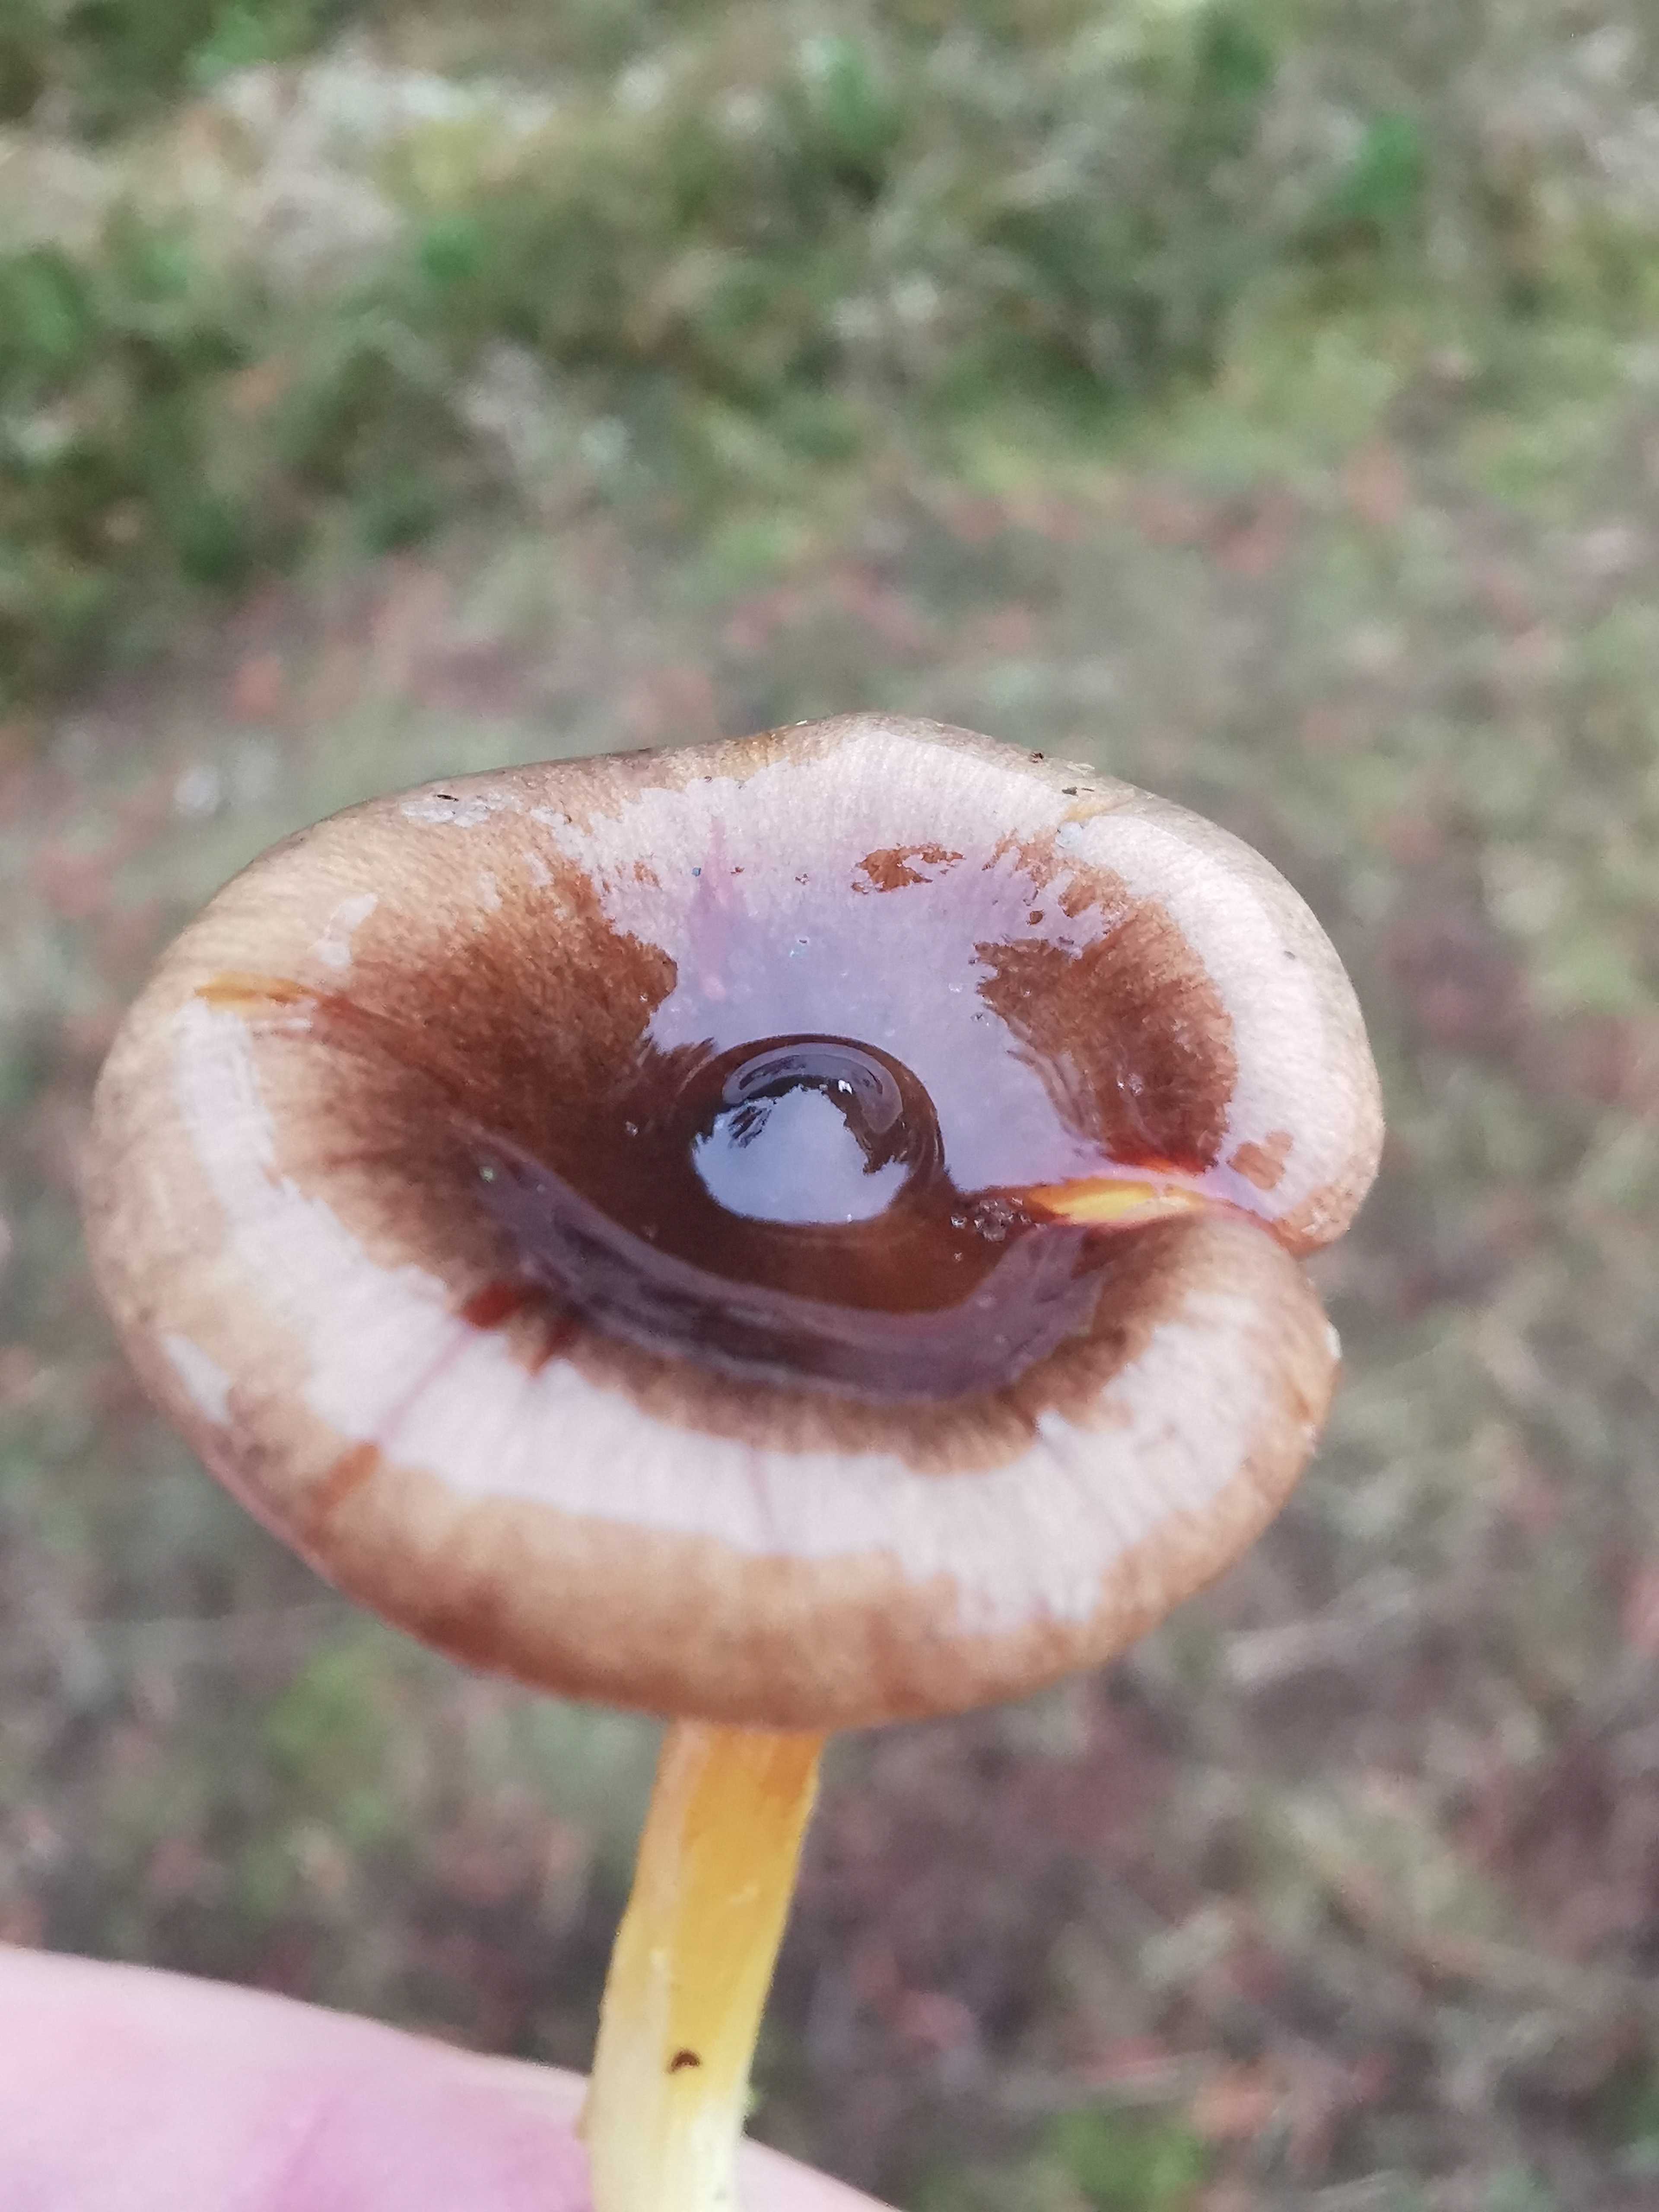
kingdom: Fungi
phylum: Basidiomycota
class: Agaricomycetes
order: Agaricales
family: Hygrophoraceae
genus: Hygrophorus
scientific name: Hygrophorus hypothejus
